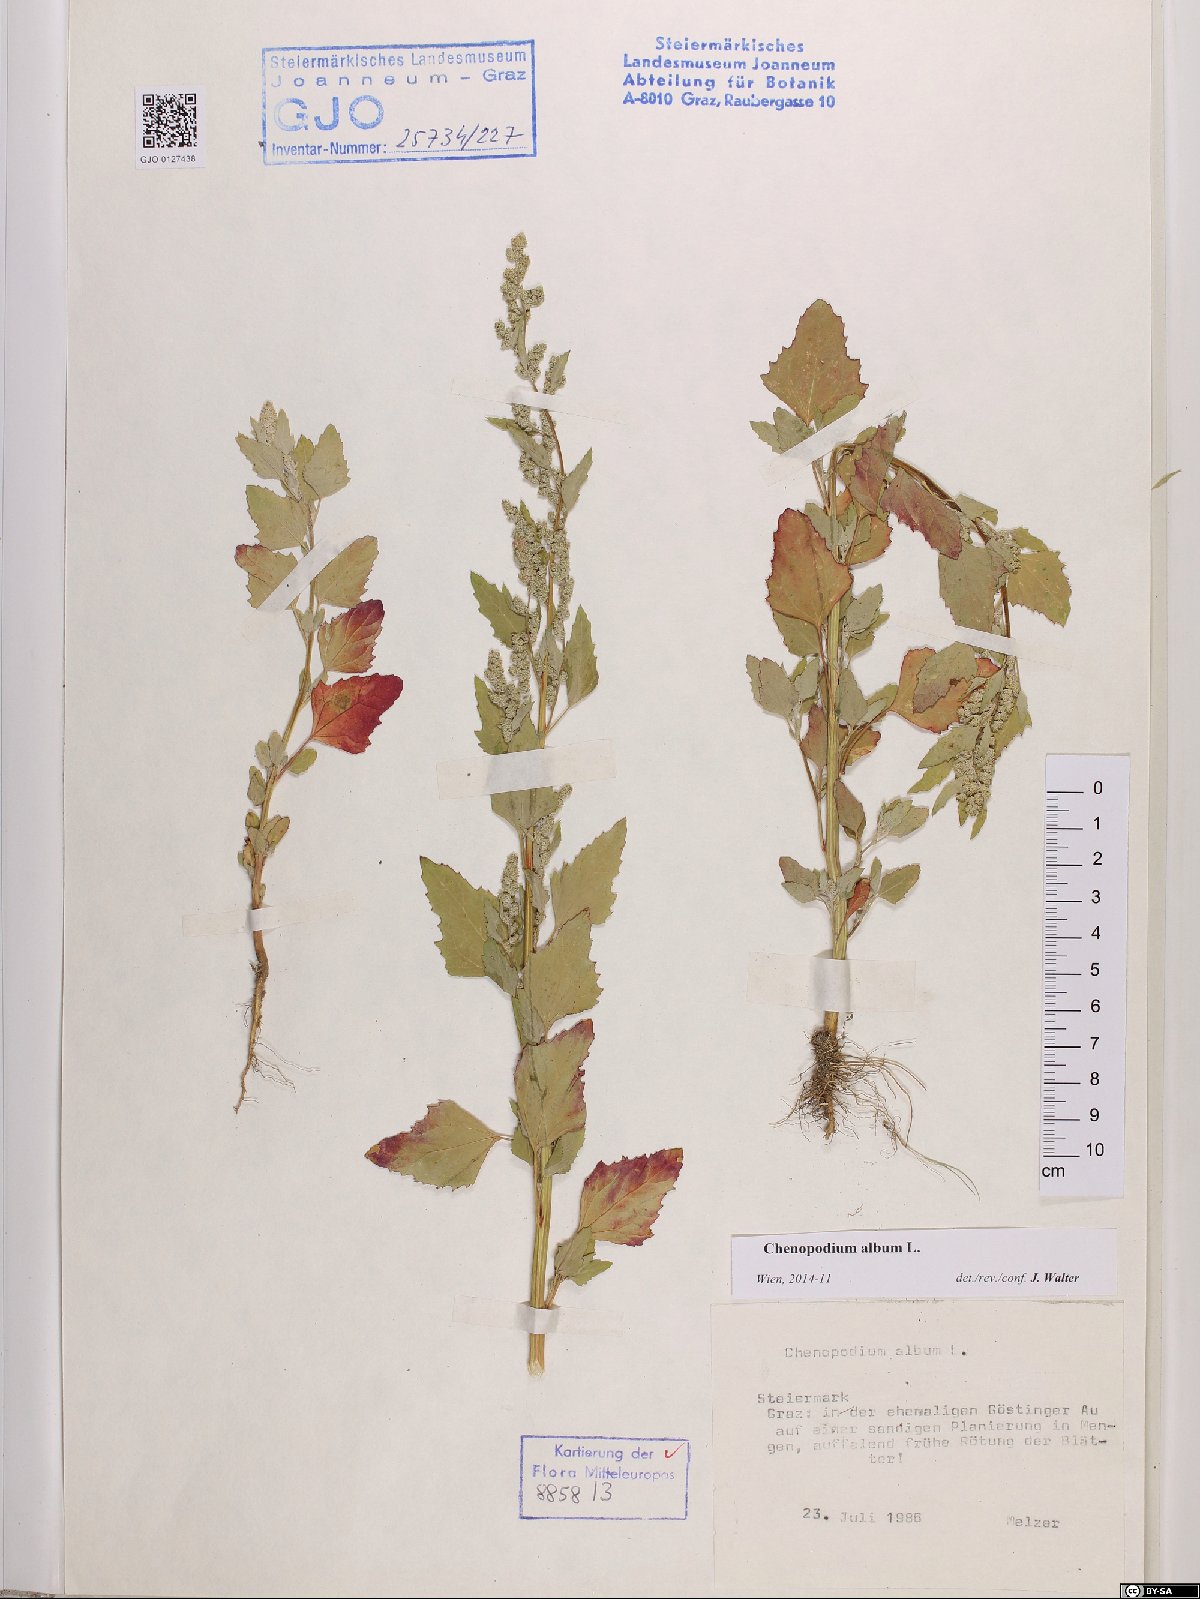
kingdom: Plantae
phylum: Tracheophyta
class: Magnoliopsida
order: Caryophyllales
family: Amaranthaceae
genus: Chenopodium
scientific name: Chenopodium album
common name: Fat-hen
